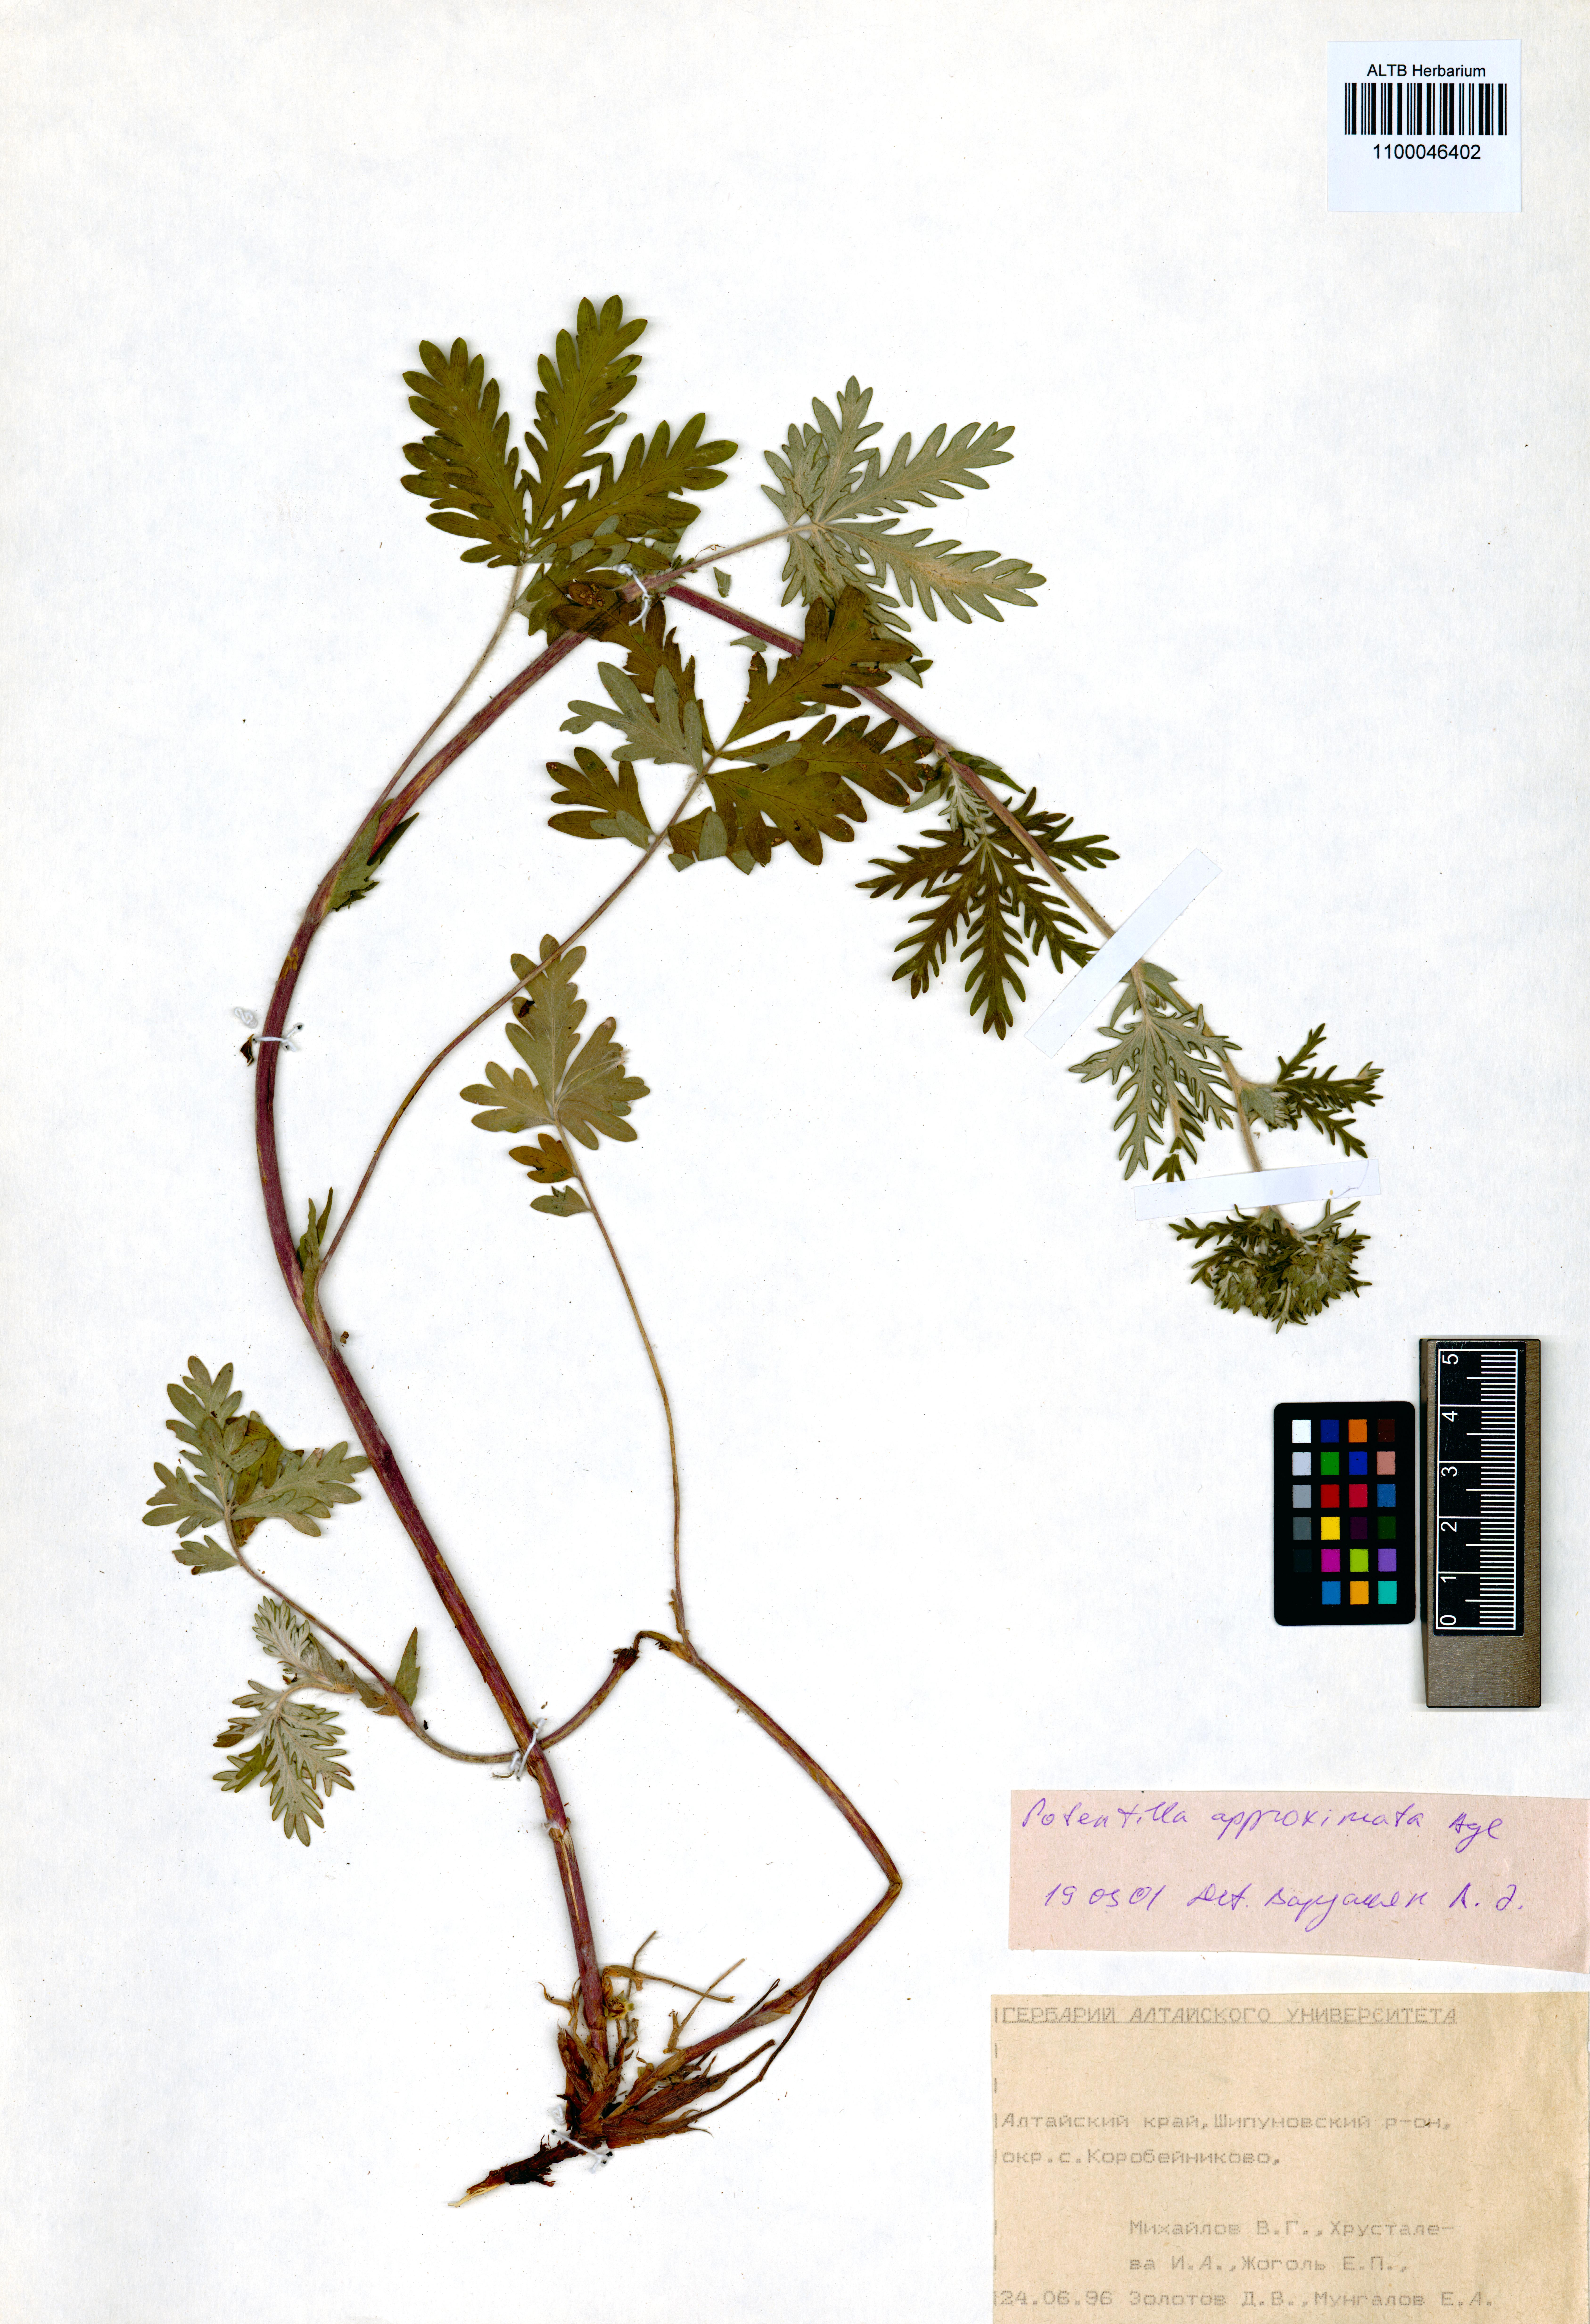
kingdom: Plantae
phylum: Tracheophyta
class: Magnoliopsida
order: Rosales
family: Rosaceae
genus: Potentilla
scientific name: Potentilla conferta
